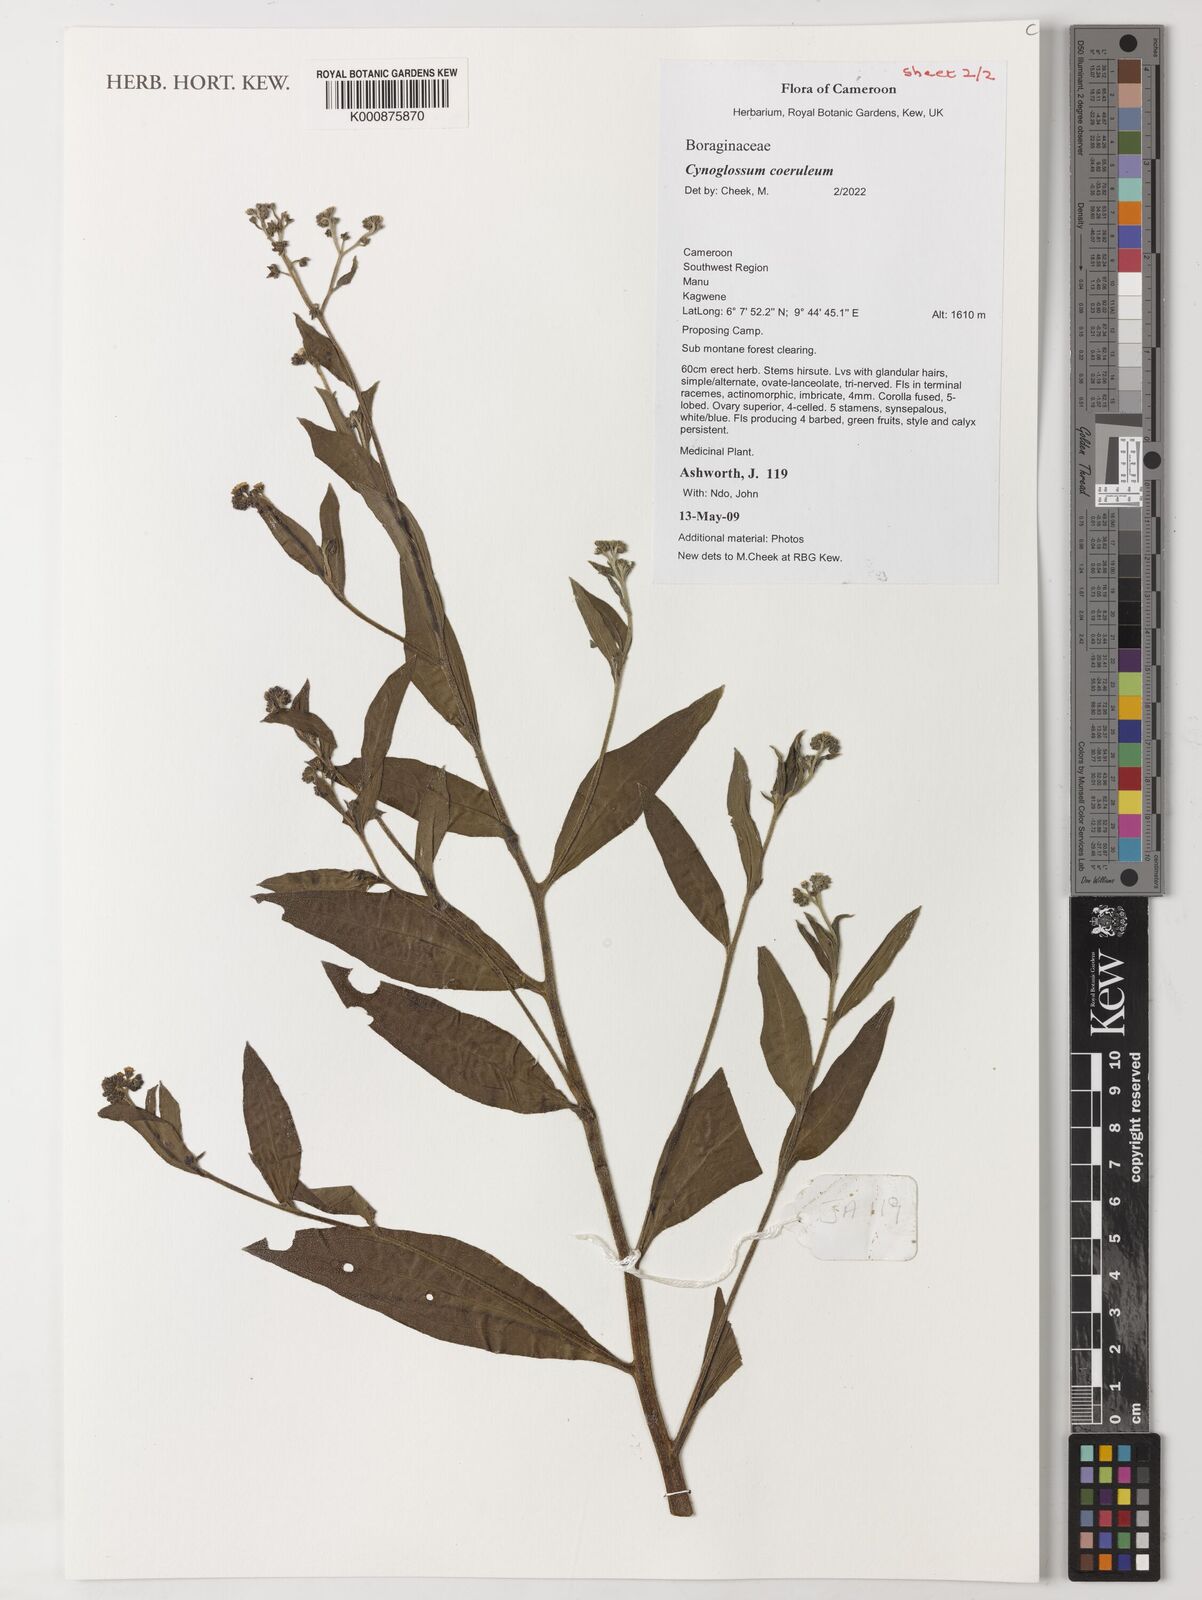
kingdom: Plantae
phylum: Tracheophyta
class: Magnoliopsida
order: Boraginales
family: Boraginaceae
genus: Paracynoglossum
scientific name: Paracynoglossum afrocaeruleum
